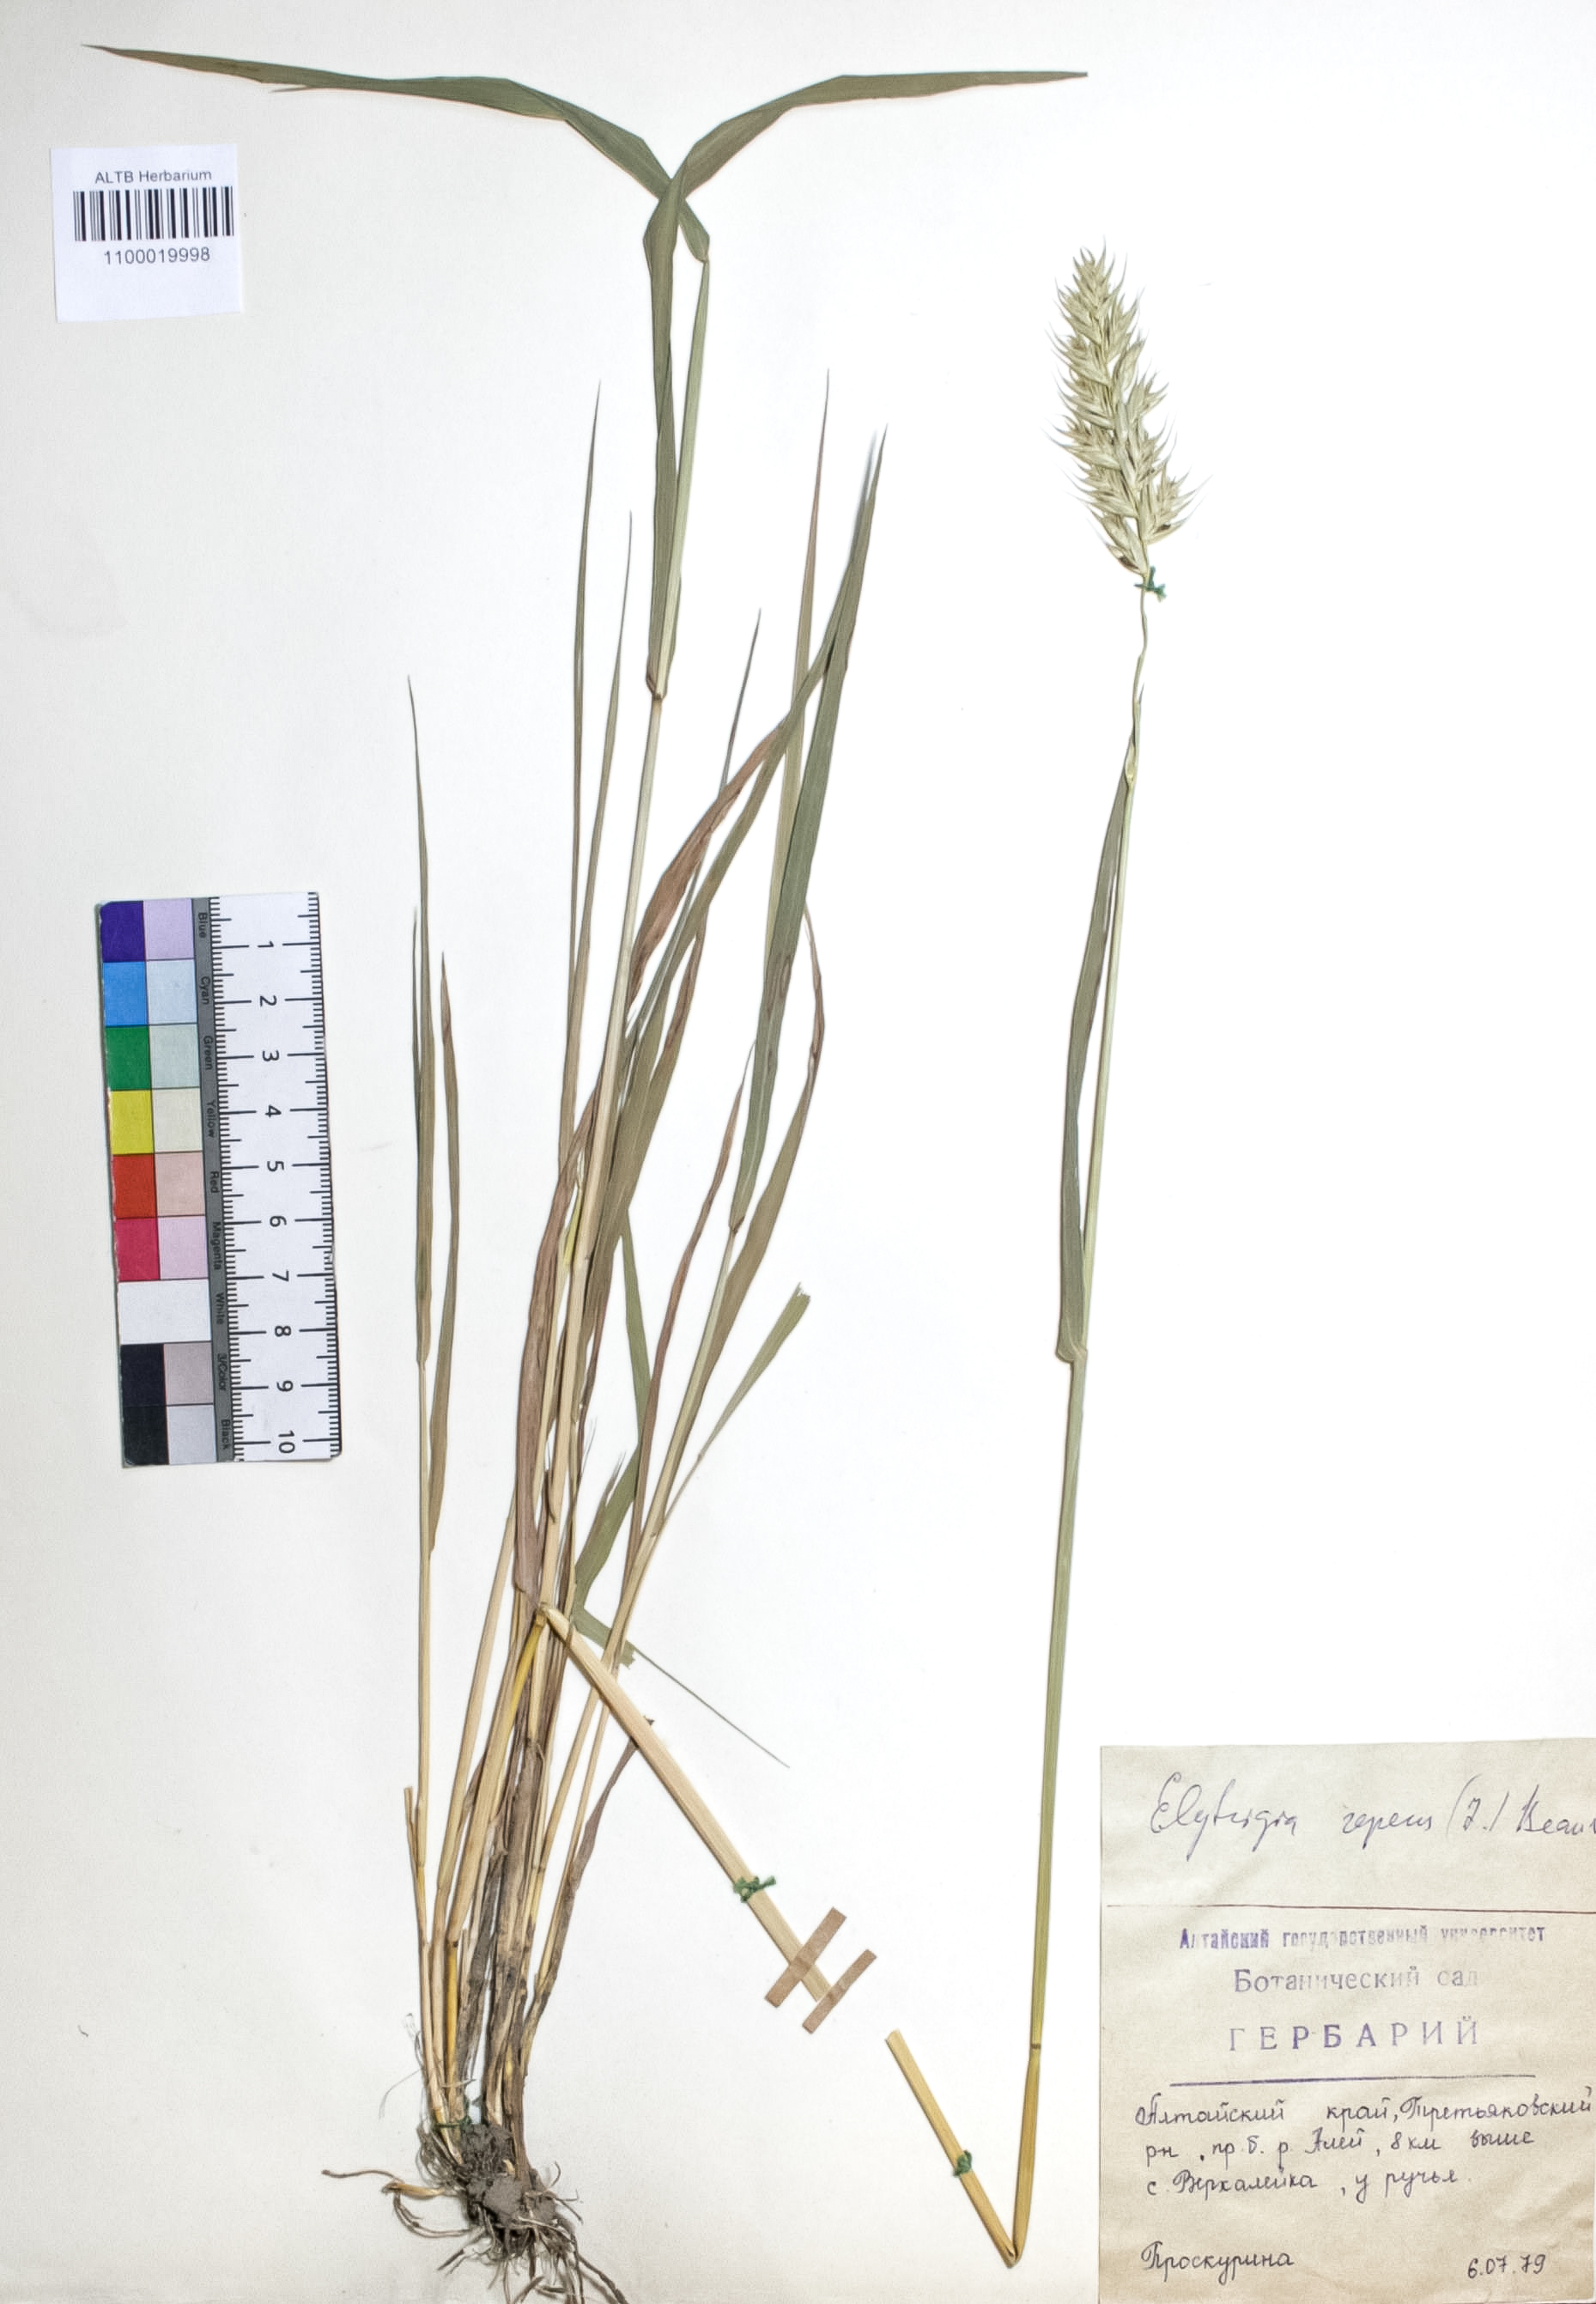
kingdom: Plantae
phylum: Tracheophyta
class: Liliopsida
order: Poales
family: Poaceae
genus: Elymus
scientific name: Elymus repens
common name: Quackgrass
